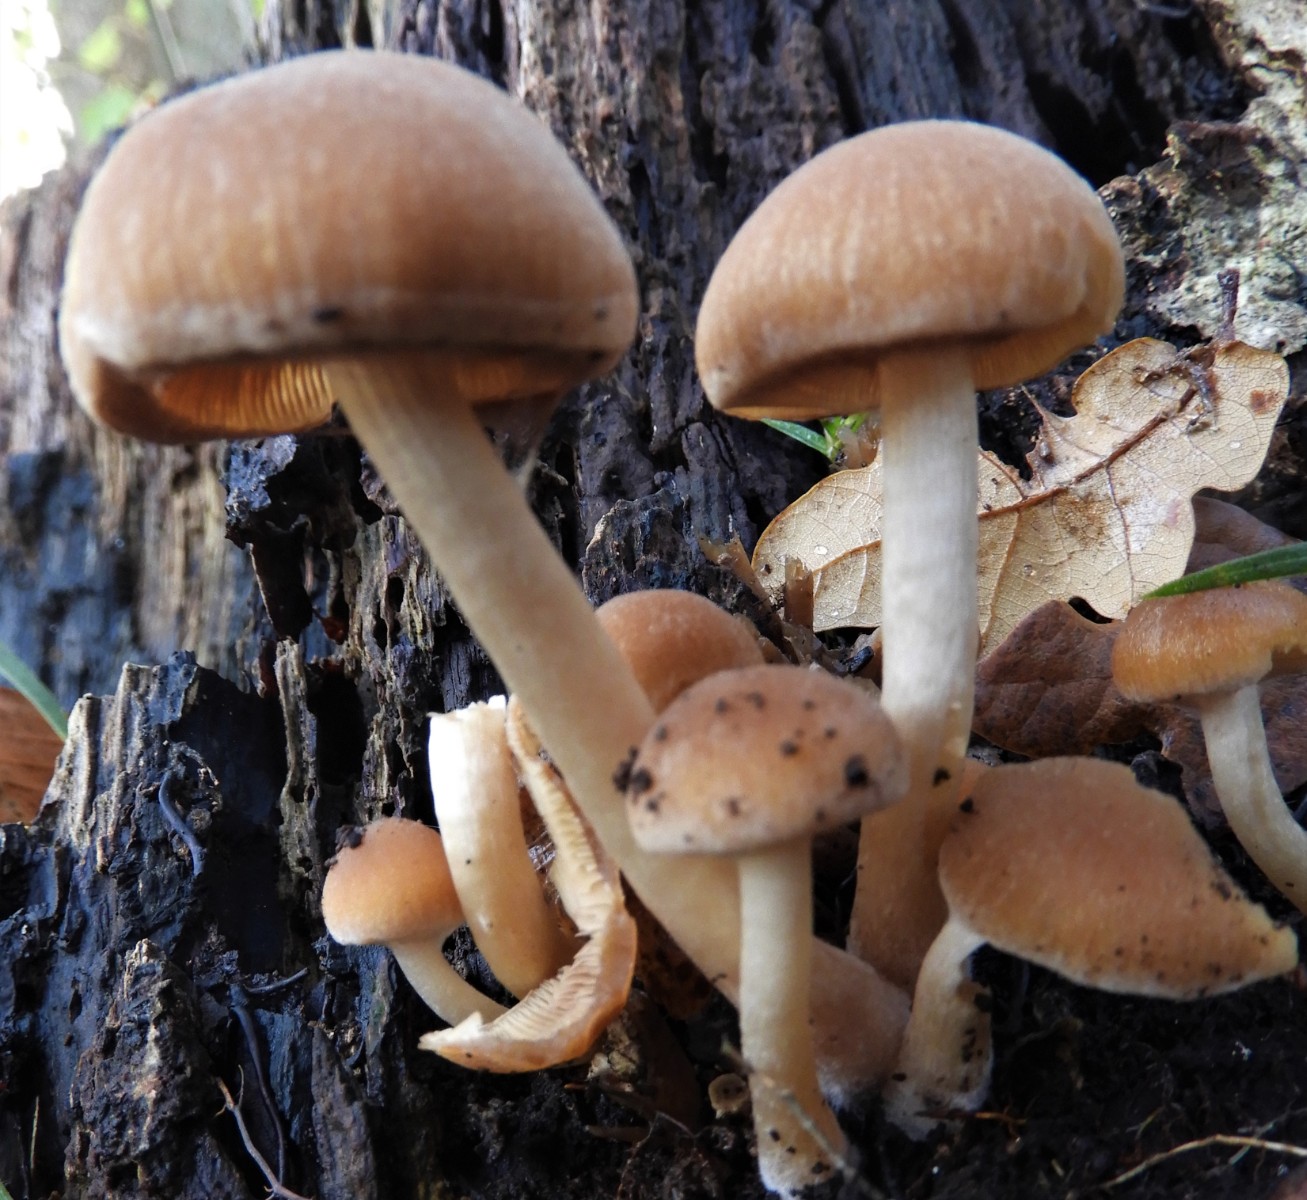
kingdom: Fungi
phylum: Basidiomycota
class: Agaricomycetes
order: Agaricales
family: Psathyrellaceae
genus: Psathyrella
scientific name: Psathyrella piluliformis
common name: lysstokket mørkhat
